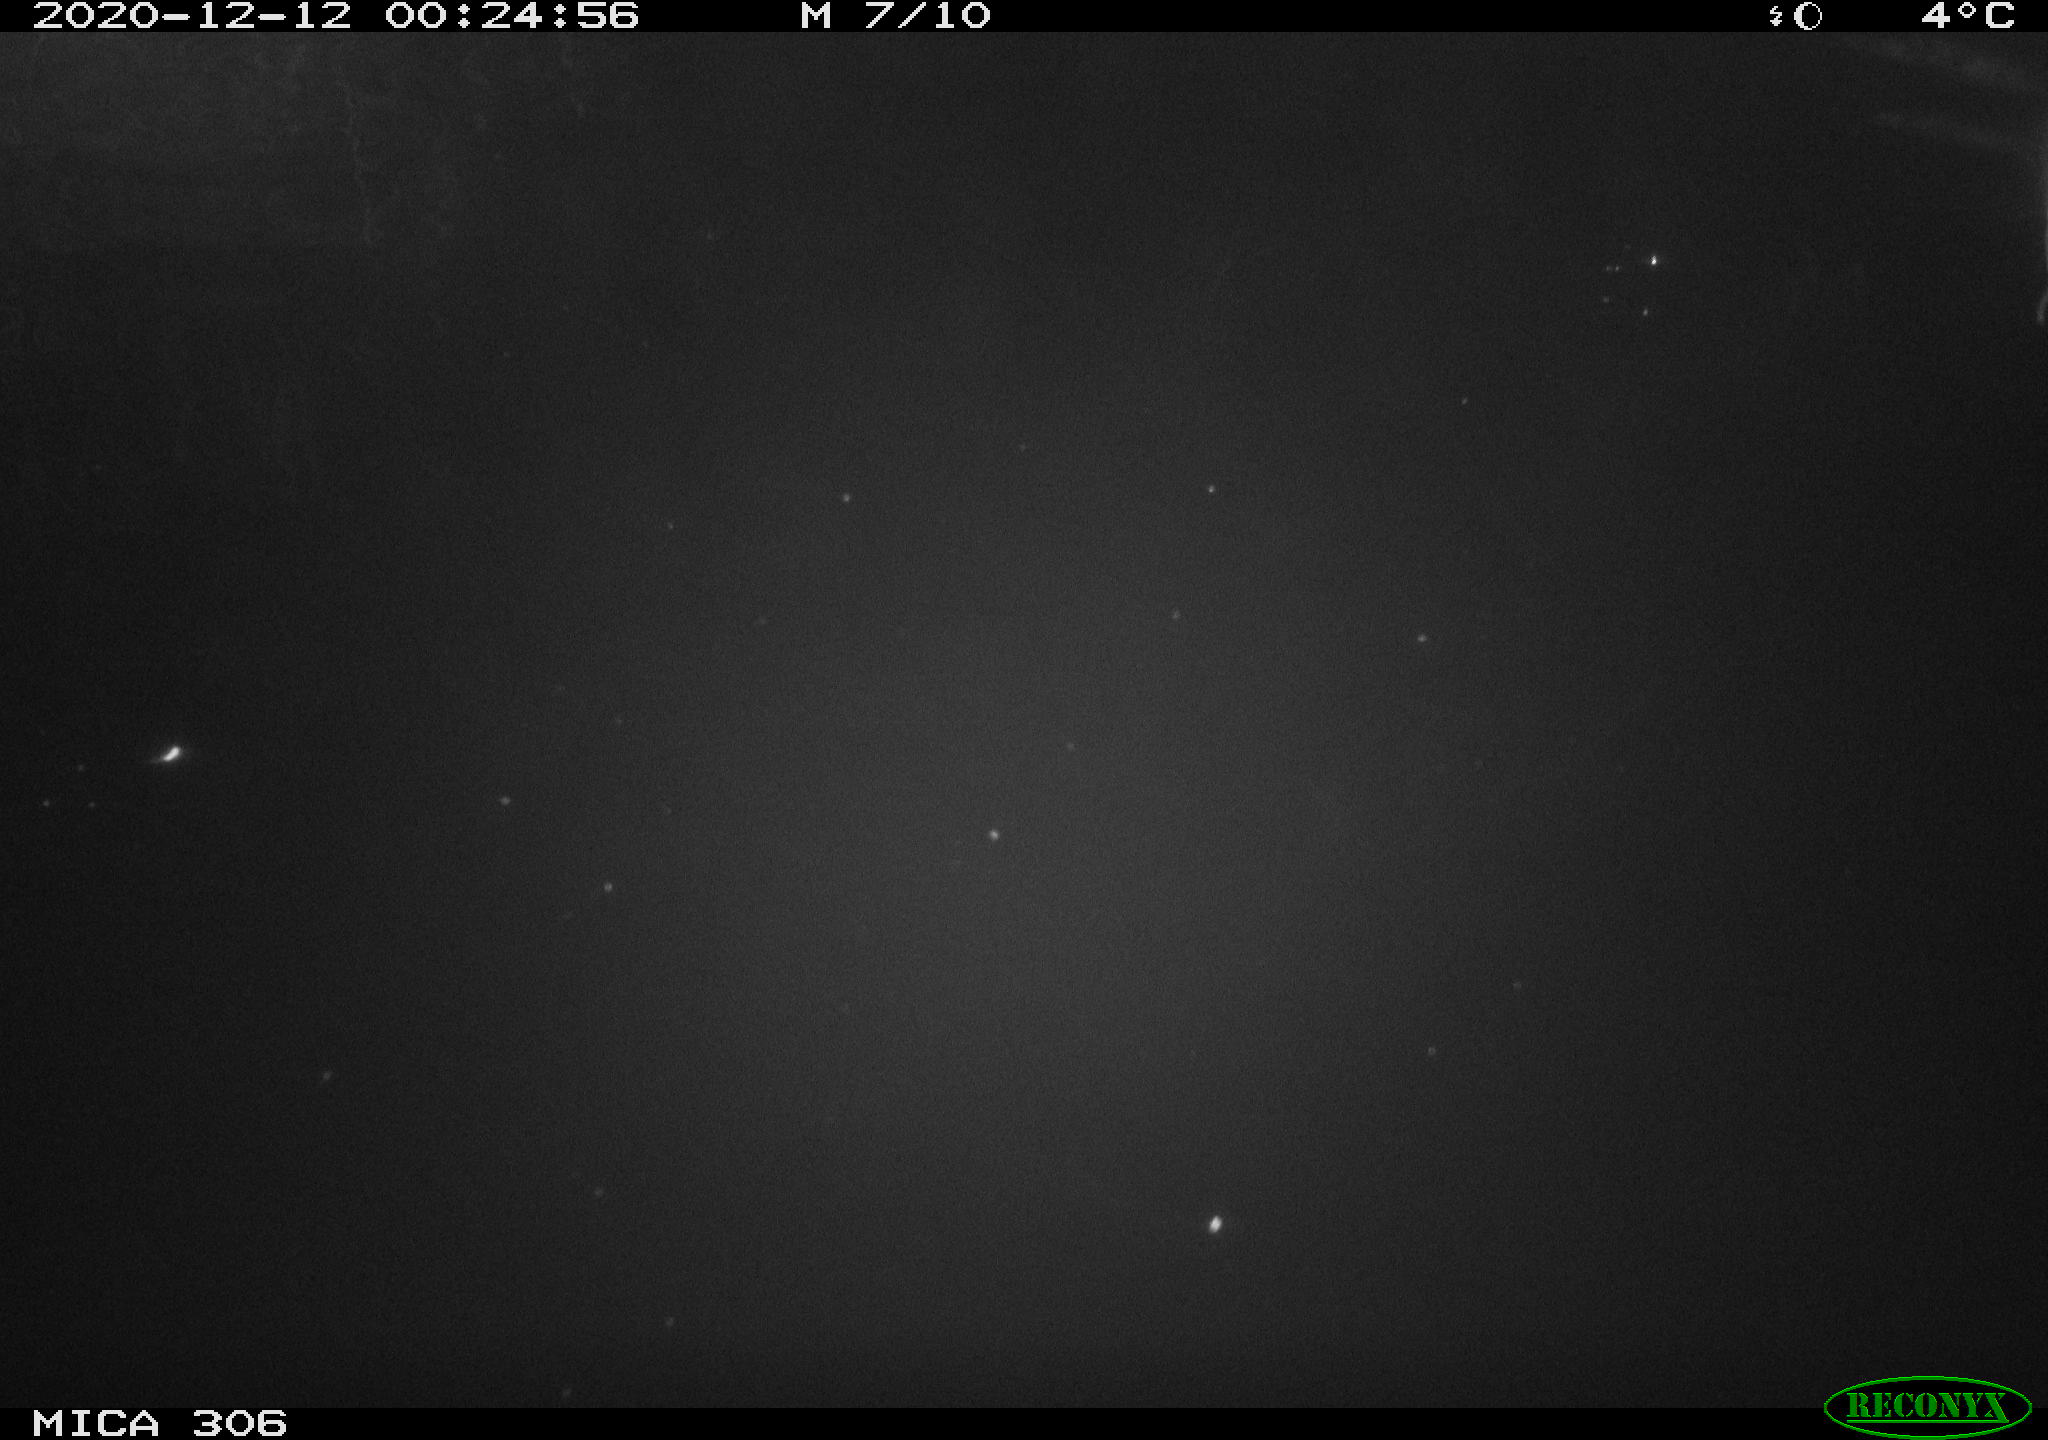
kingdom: Animalia
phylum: Chordata
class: Mammalia
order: Rodentia
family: Cricetidae
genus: Ondatra
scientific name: Ondatra zibethicus
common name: Muskrat
